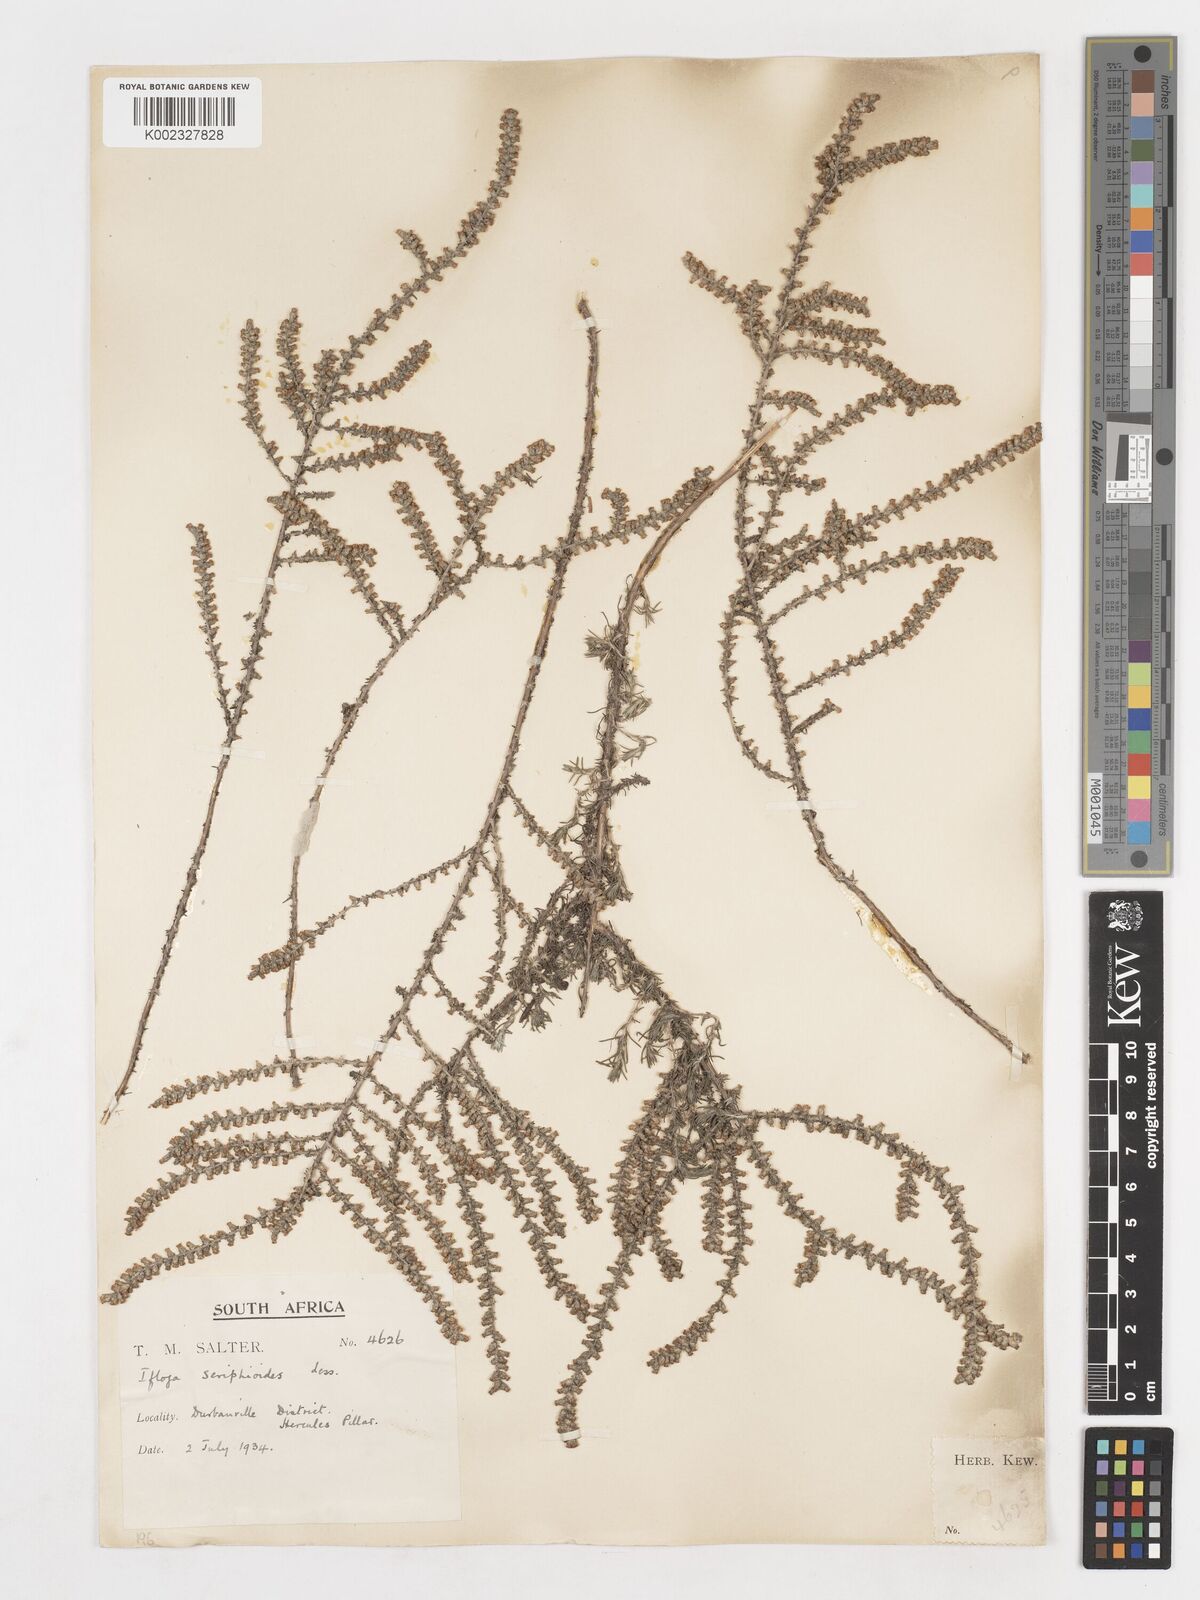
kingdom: Plantae
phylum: Tracheophyta
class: Magnoliopsida
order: Asterales
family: Asteraceae
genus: Ifloga
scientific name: Ifloga ambigua
